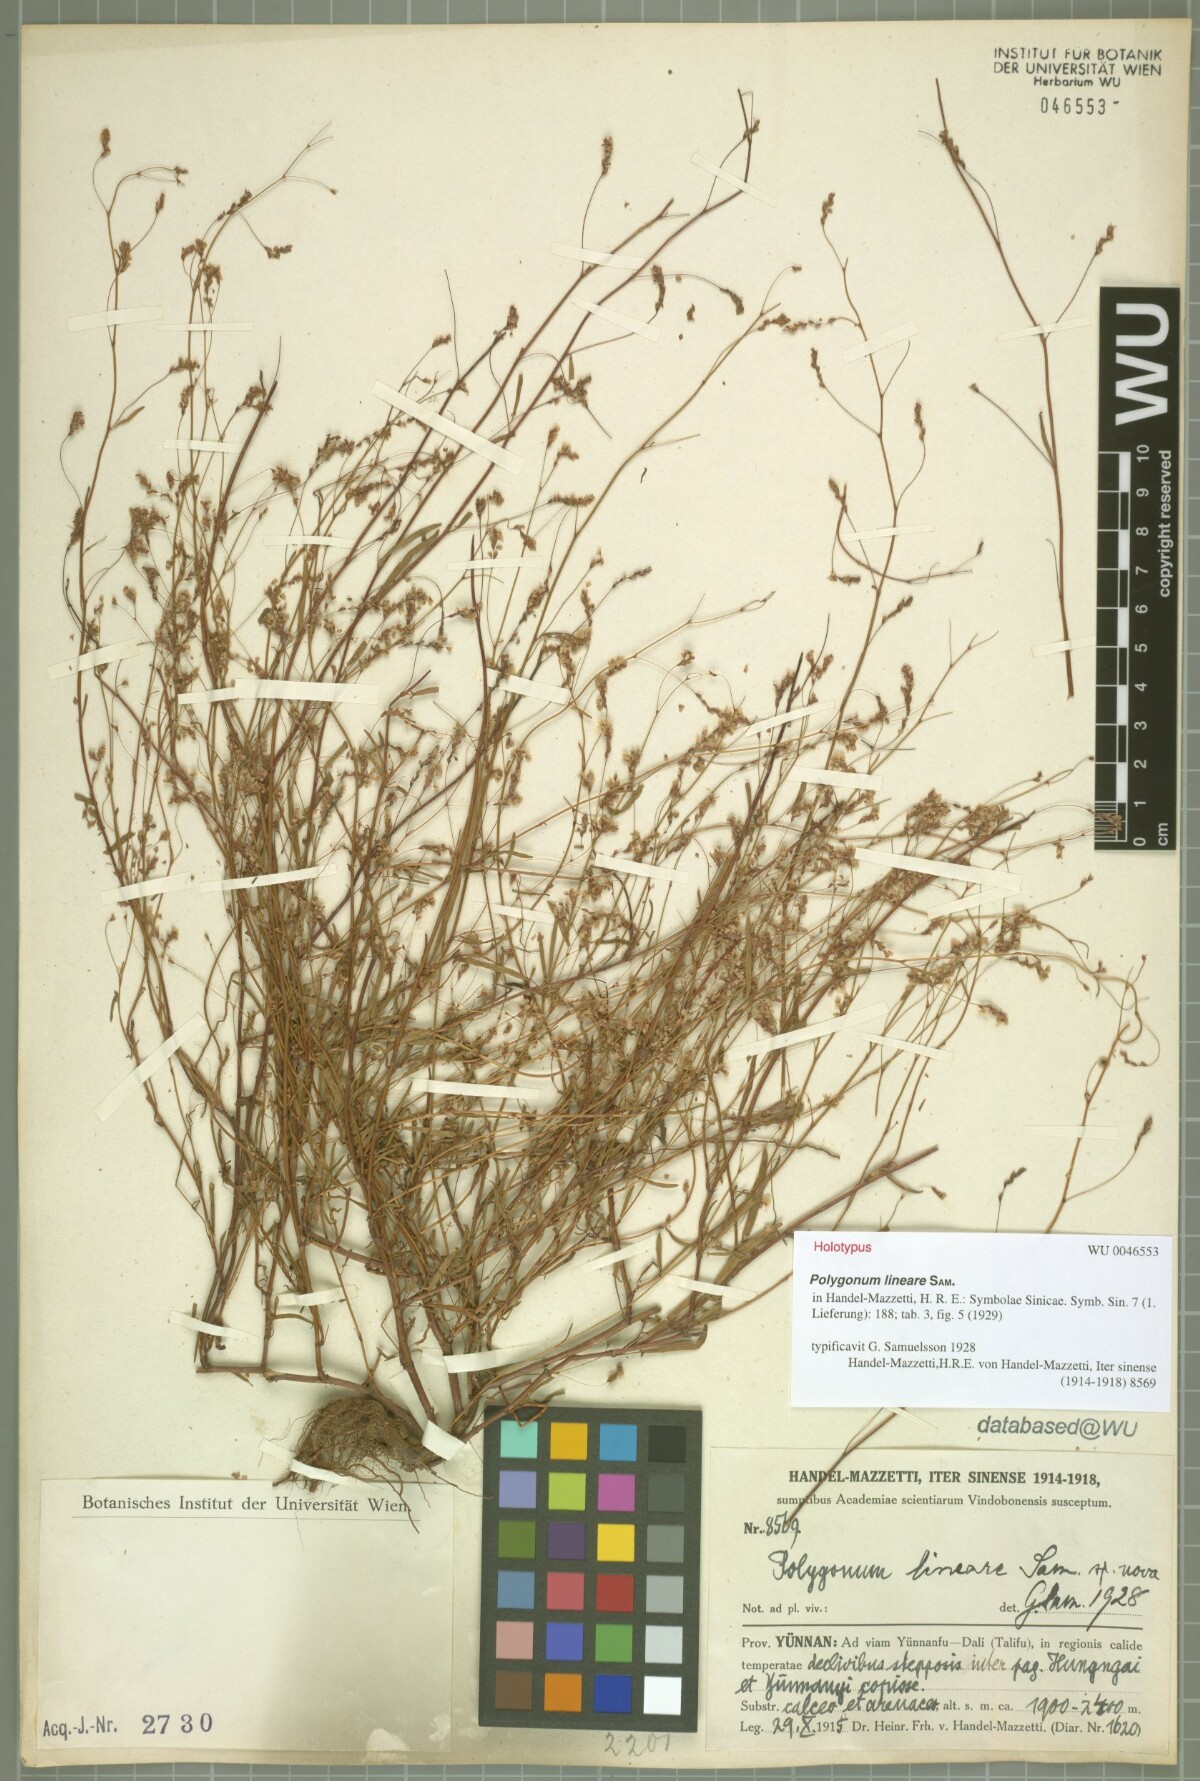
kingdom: Plantae
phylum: Tracheophyta
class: Magnoliopsida
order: Caryophyllales
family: Polygonaceae
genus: Fagopyrum
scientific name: Fagopyrum lineare
